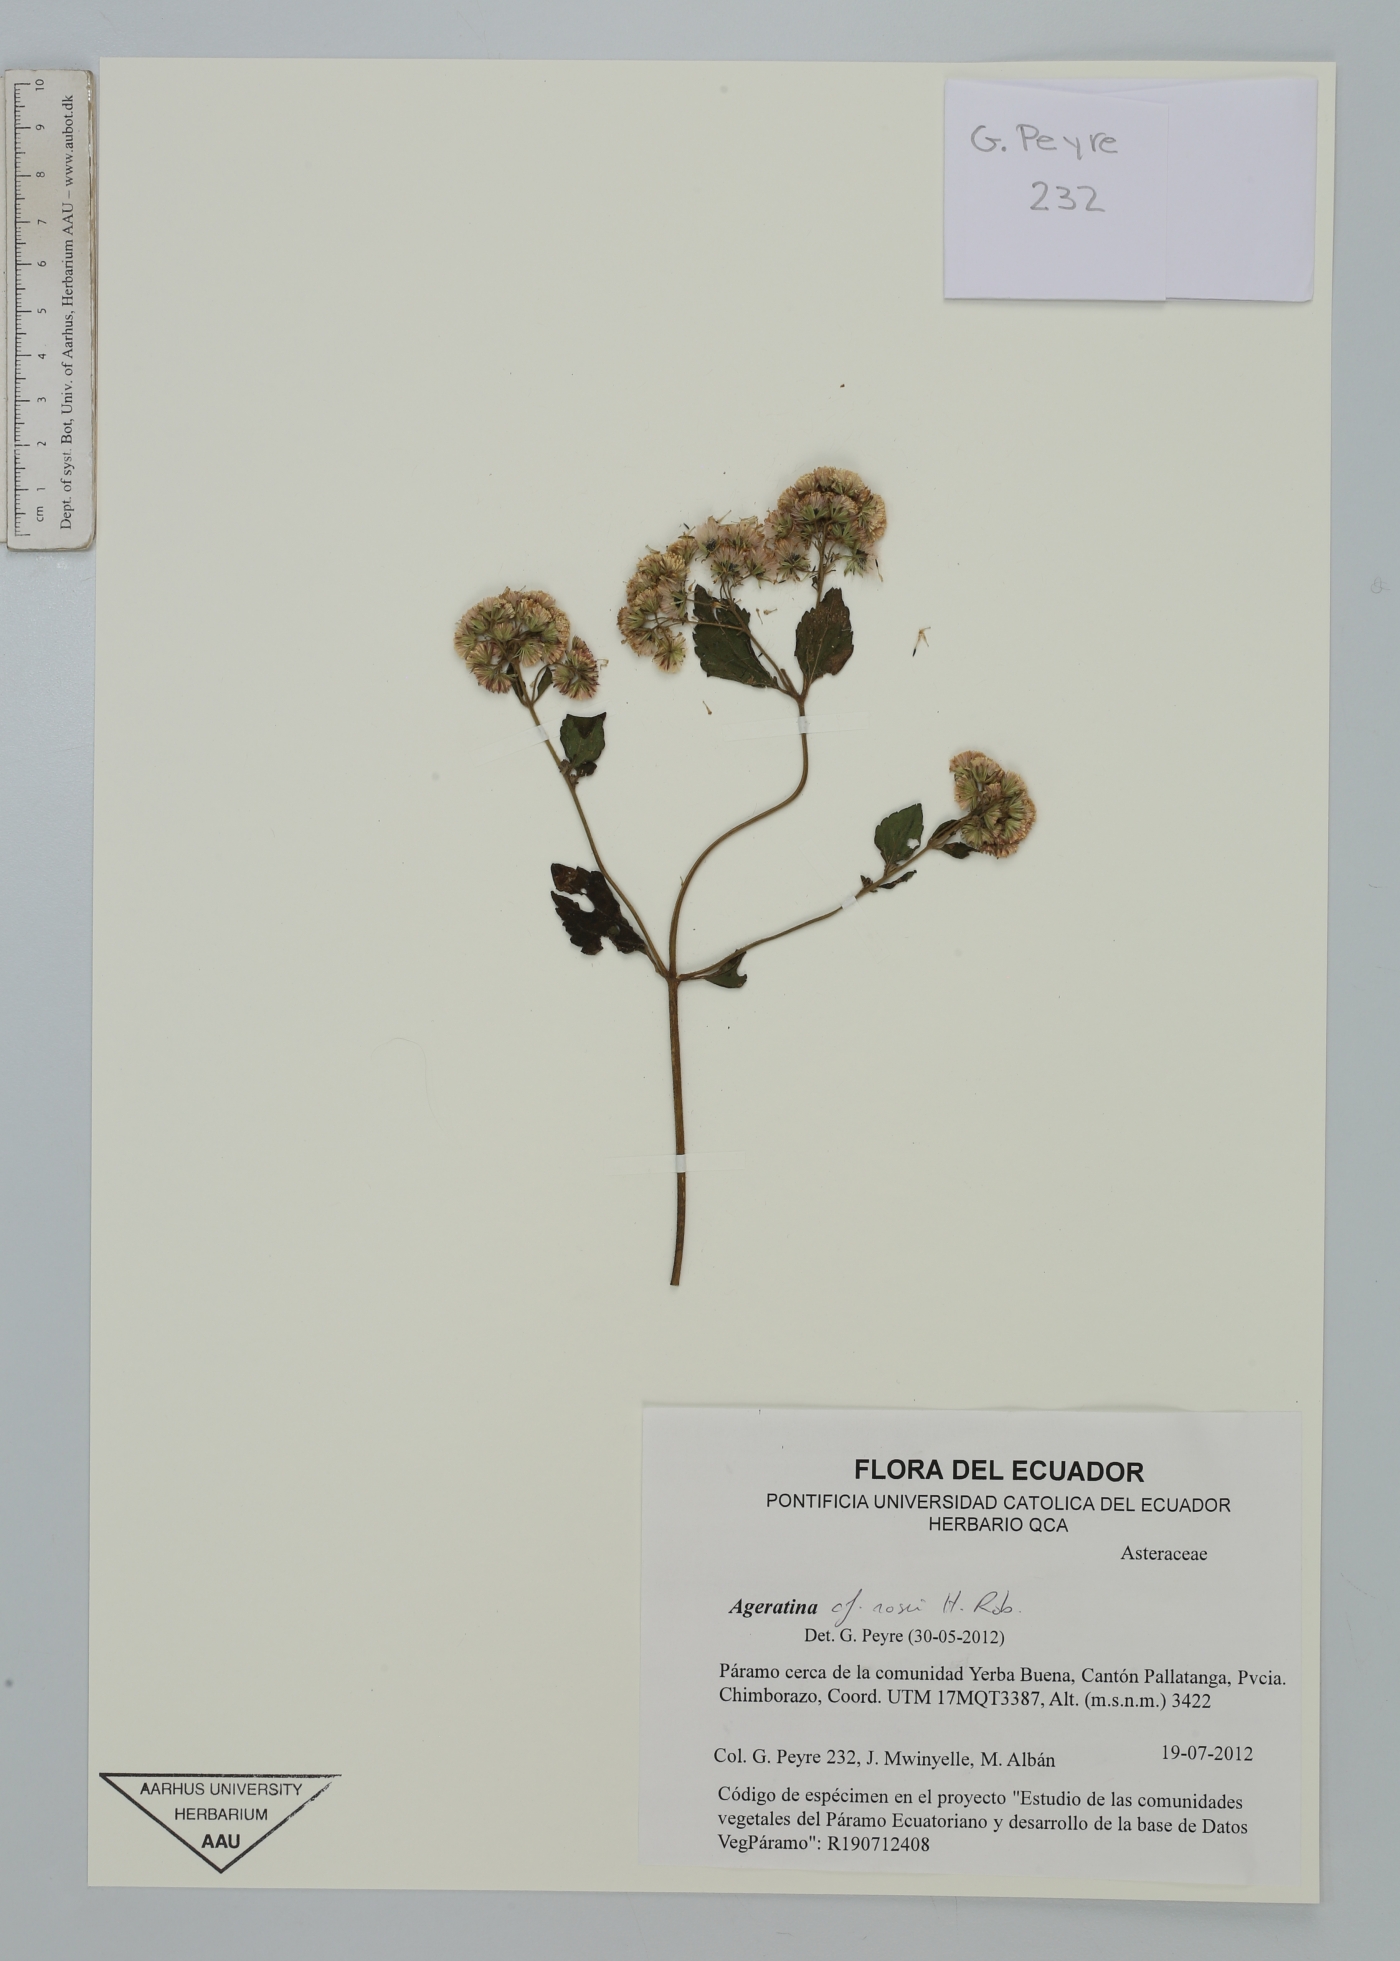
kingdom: Plantae
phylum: Tracheophyta
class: Magnoliopsida
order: Asterales
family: Asteraceae
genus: Ageratina
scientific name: Ageratina rosei
